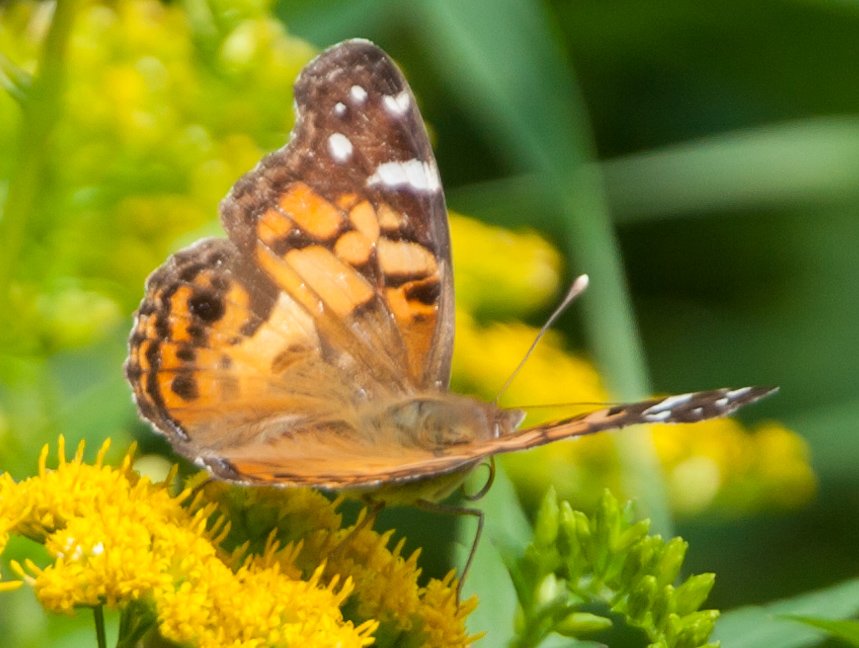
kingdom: Animalia
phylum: Arthropoda
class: Insecta
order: Lepidoptera
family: Nymphalidae
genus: Vanessa
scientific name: Vanessa virginiensis
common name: American Lady
